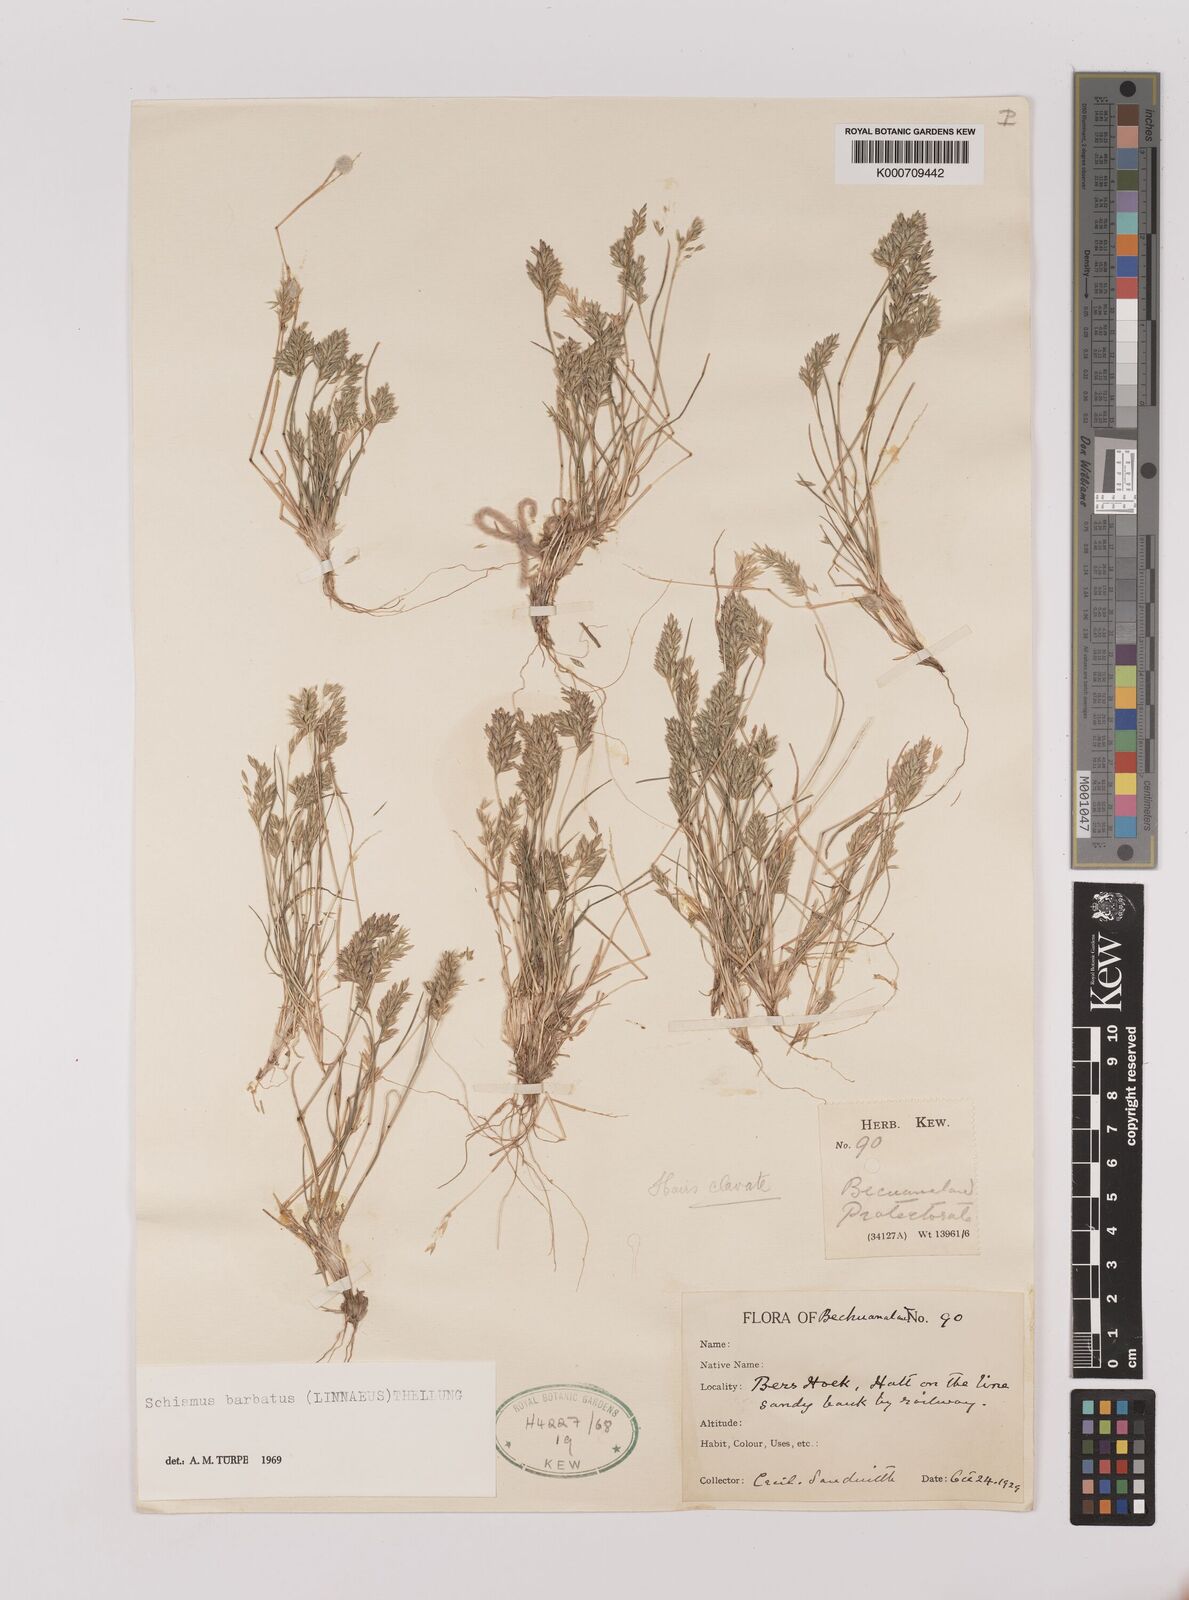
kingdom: Plantae
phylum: Tracheophyta
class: Liliopsida
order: Poales
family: Poaceae
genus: Schismus
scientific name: Schismus barbatus
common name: Kelch-grass
